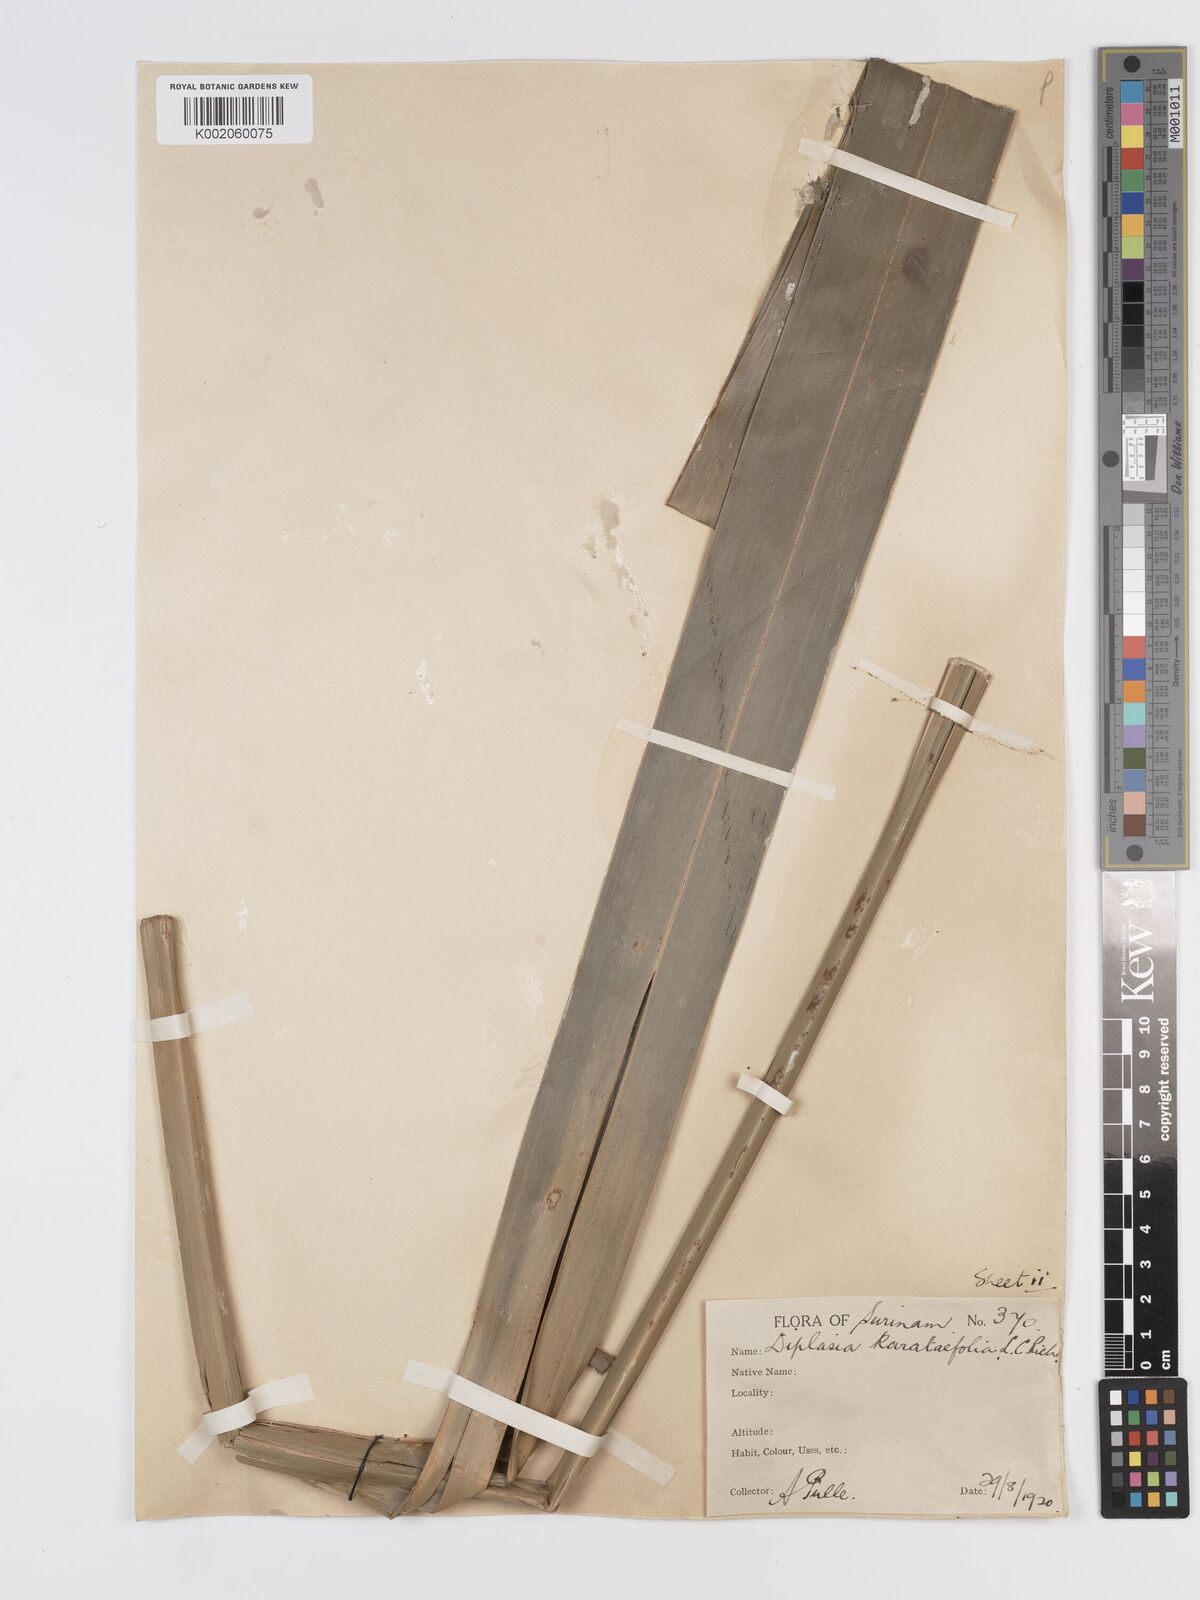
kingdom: Plantae
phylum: Tracheophyta
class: Liliopsida
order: Poales
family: Cyperaceae
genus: Diplasia
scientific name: Diplasia karatifolia
